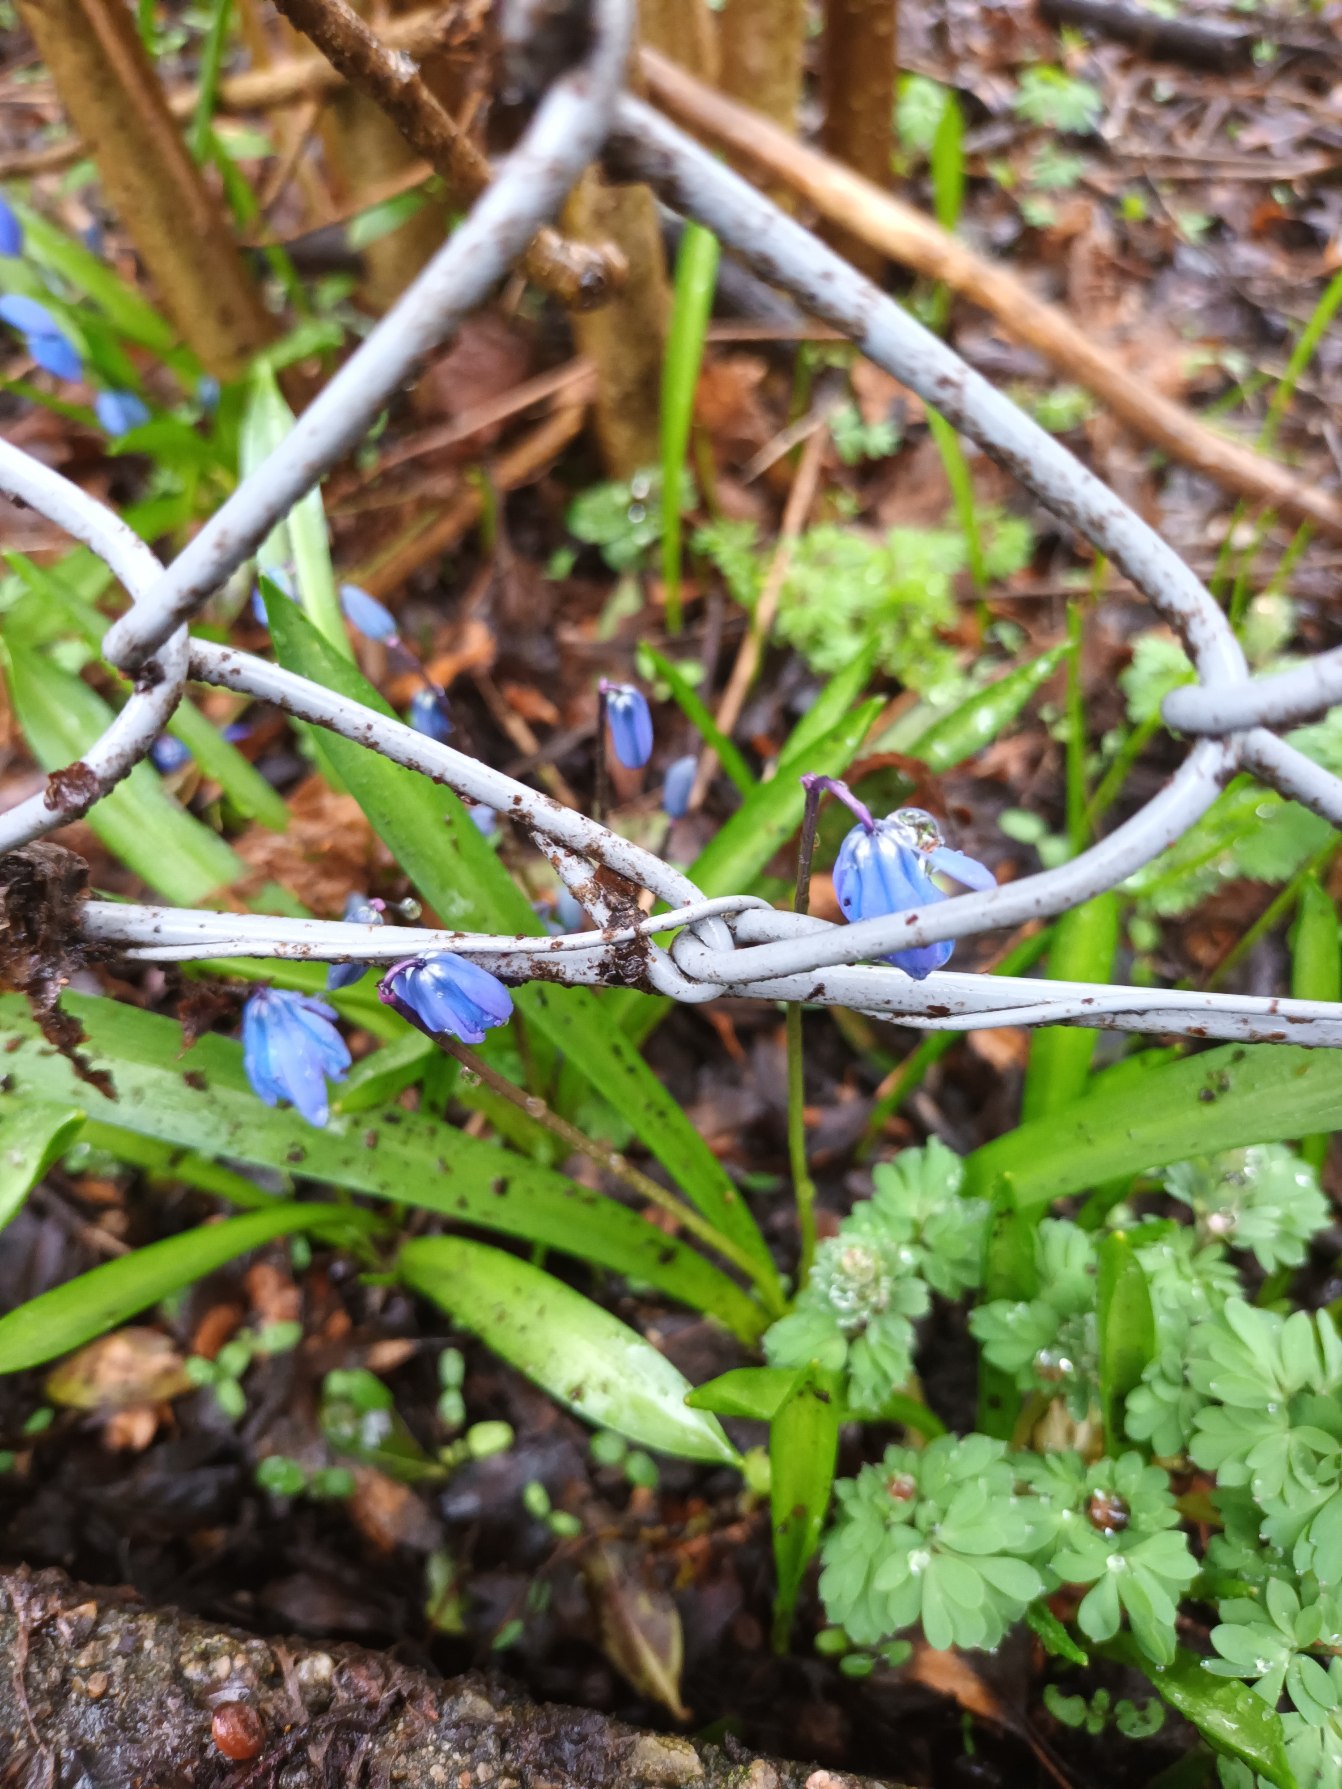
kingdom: Plantae
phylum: Tracheophyta
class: Liliopsida
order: Asparagales
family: Asparagaceae
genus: Scilla
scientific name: Scilla siberica
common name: Russisk skilla
